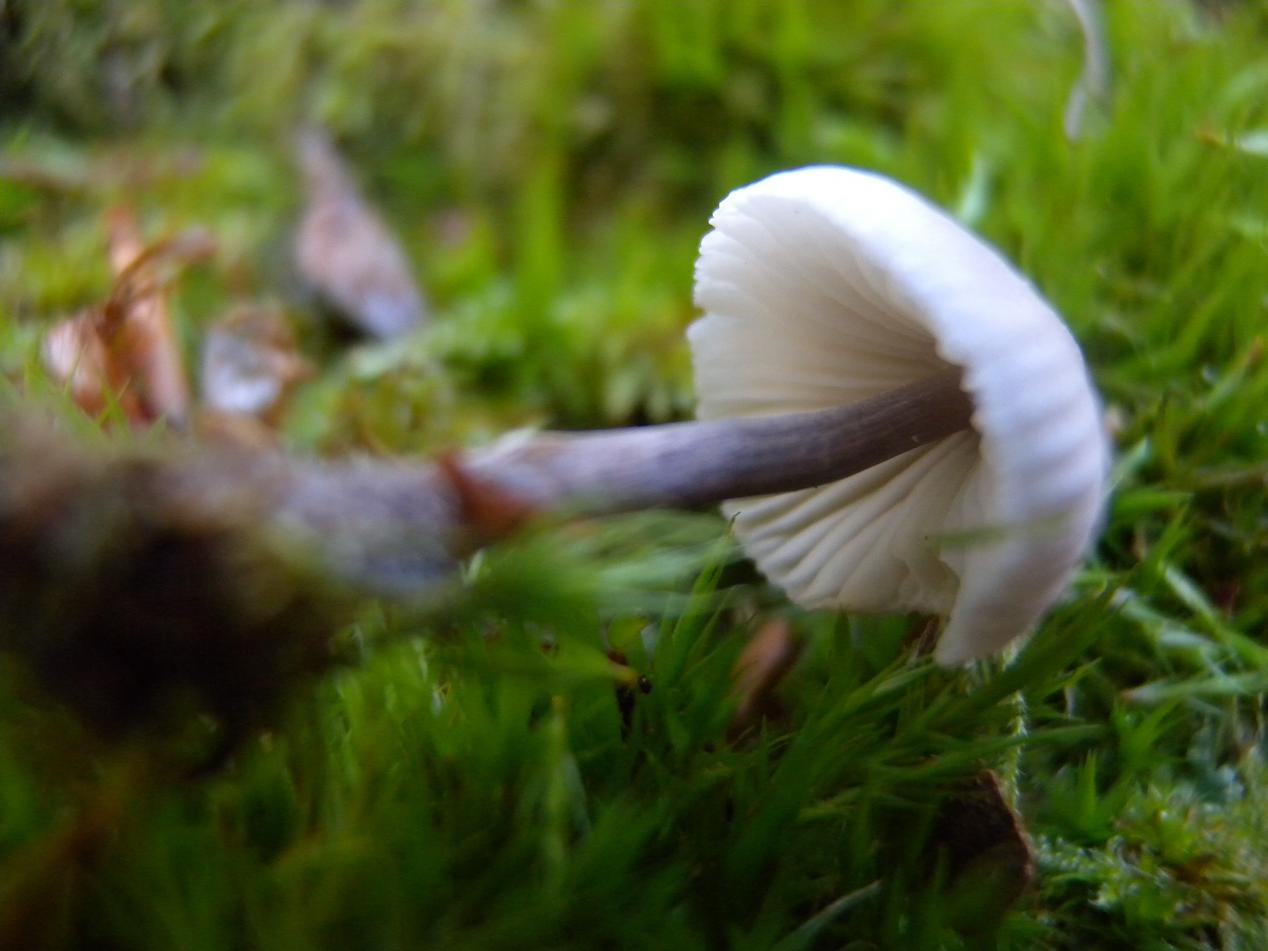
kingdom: Fungi
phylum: Basidiomycota
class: Agaricomycetes
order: Agaricales
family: Mycenaceae
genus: Mycena
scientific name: Mycena abramsii
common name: sommer-huesvamp
